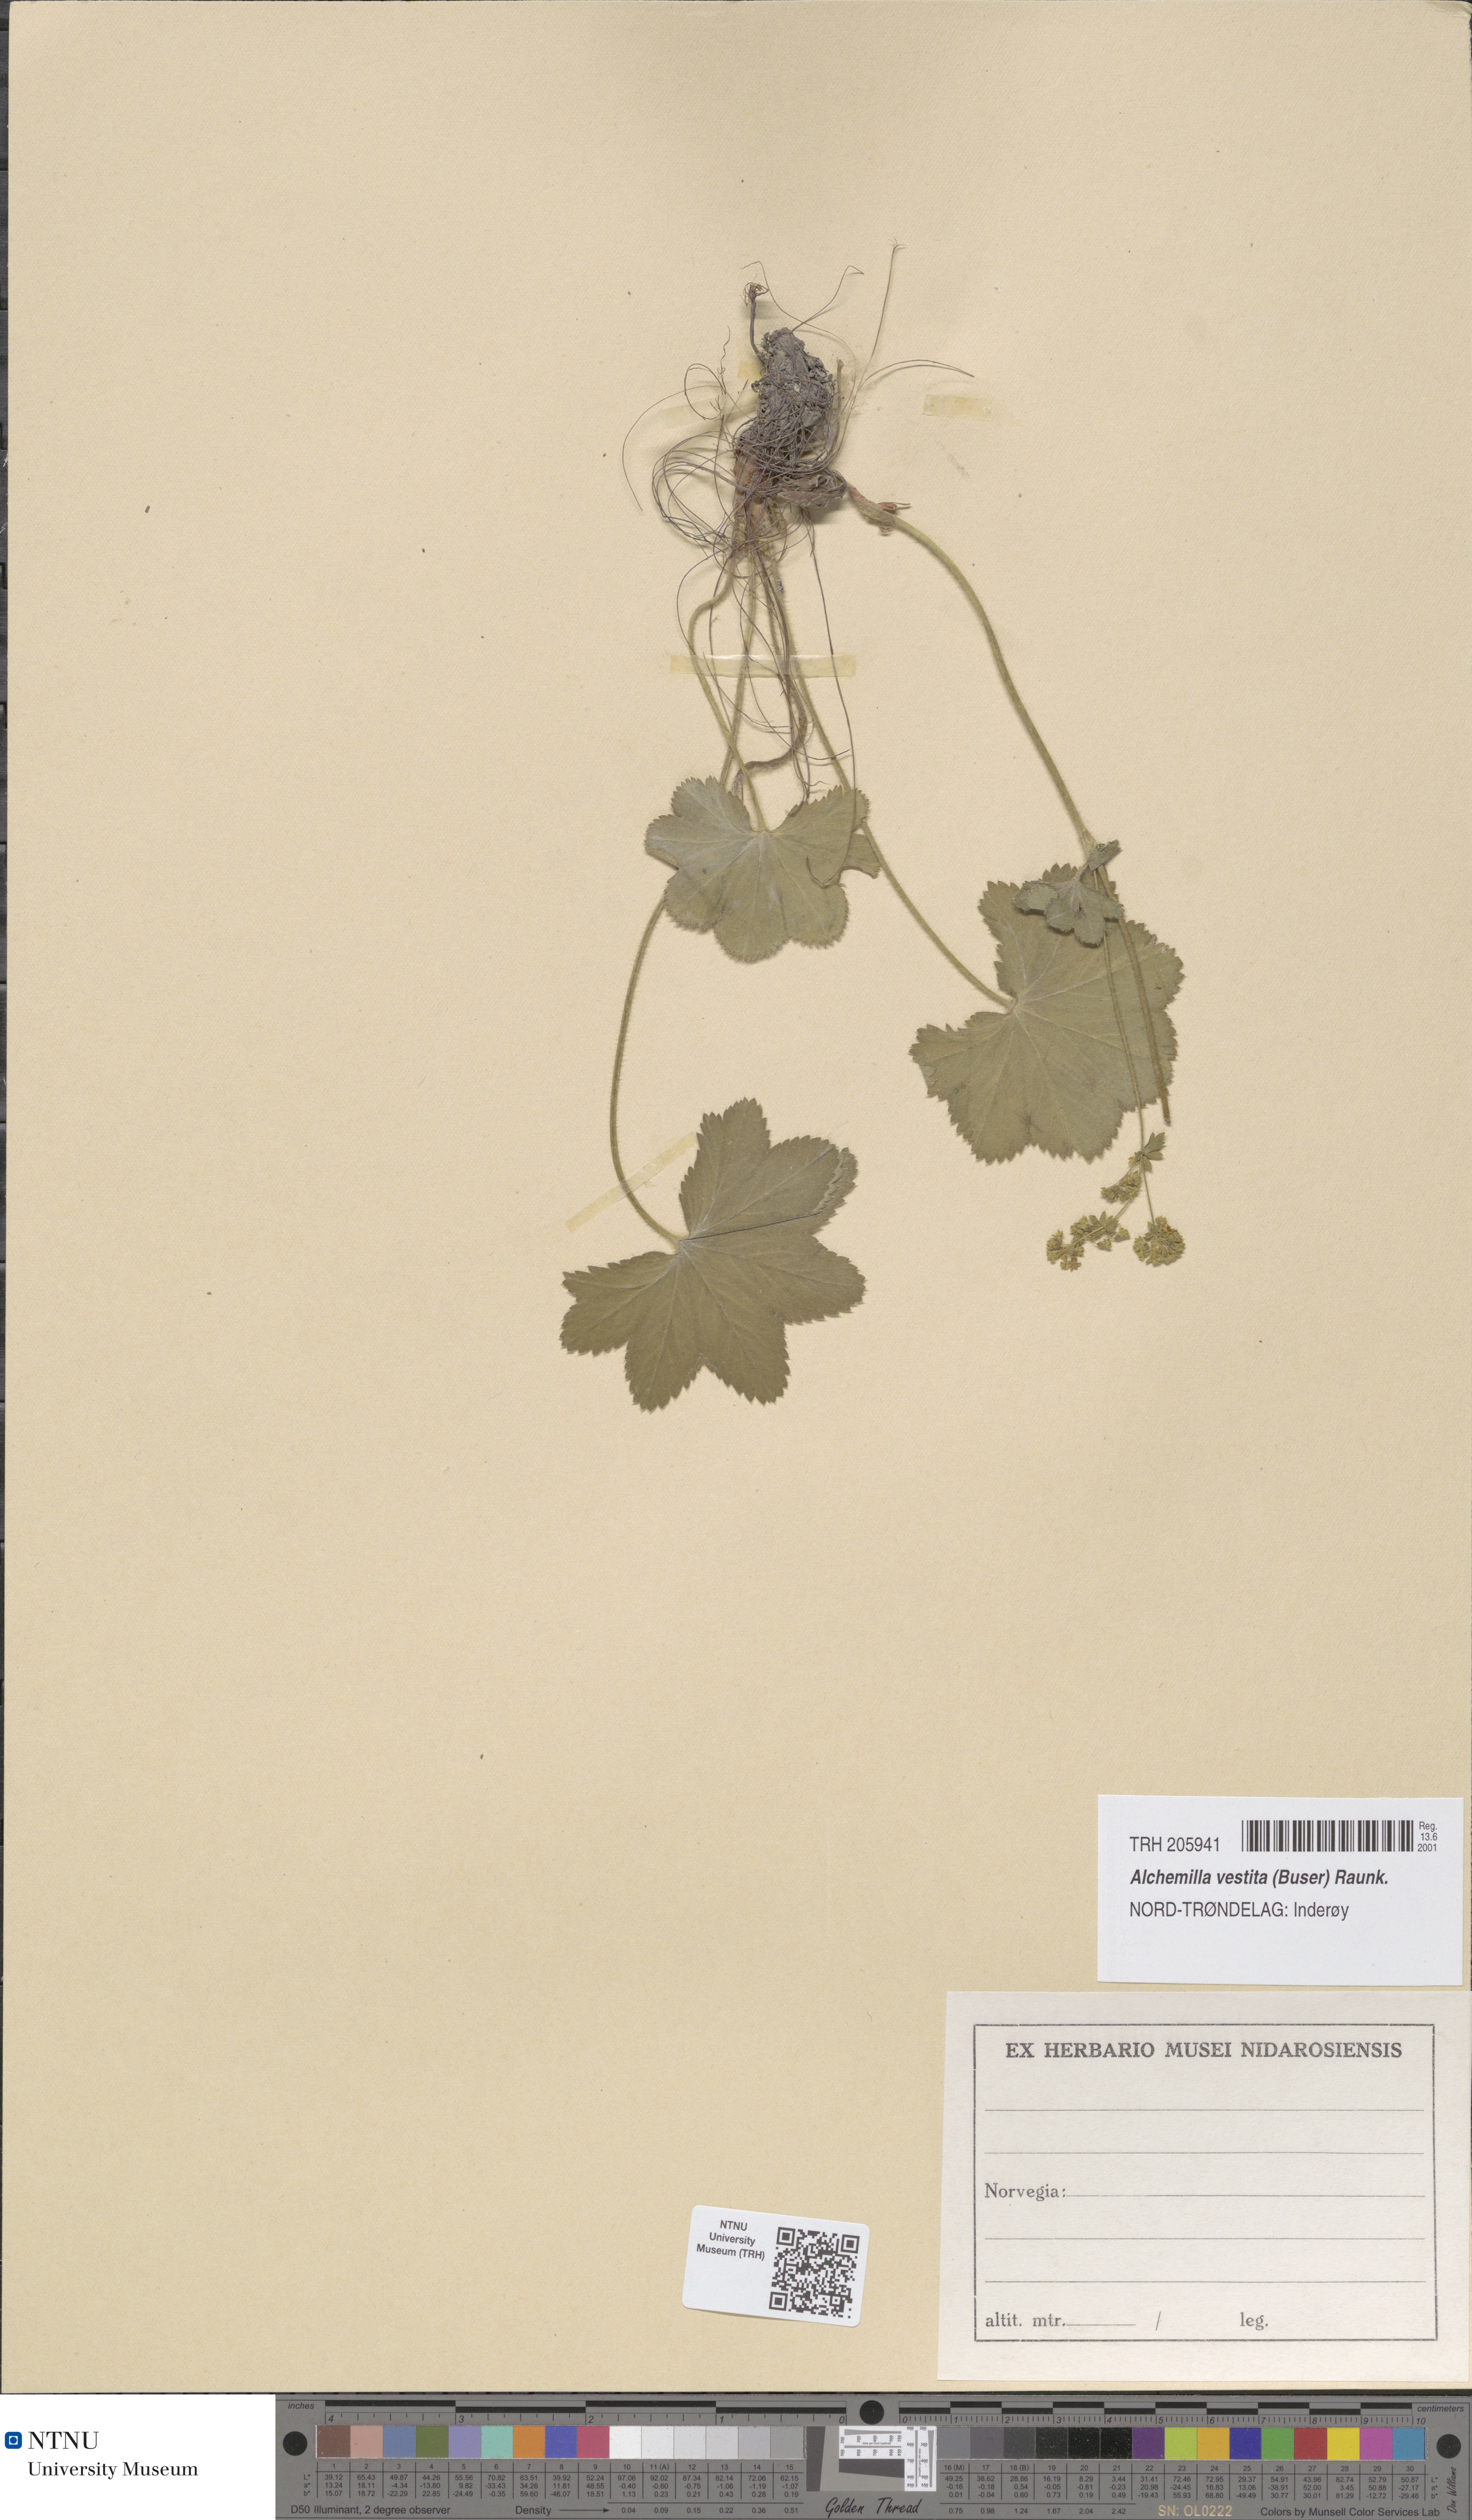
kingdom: Plantae
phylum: Tracheophyta
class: Magnoliopsida
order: Rosales
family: Rosaceae
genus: Alchemilla
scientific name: Alchemilla filicaulis
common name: Hairy lady's-mantle
